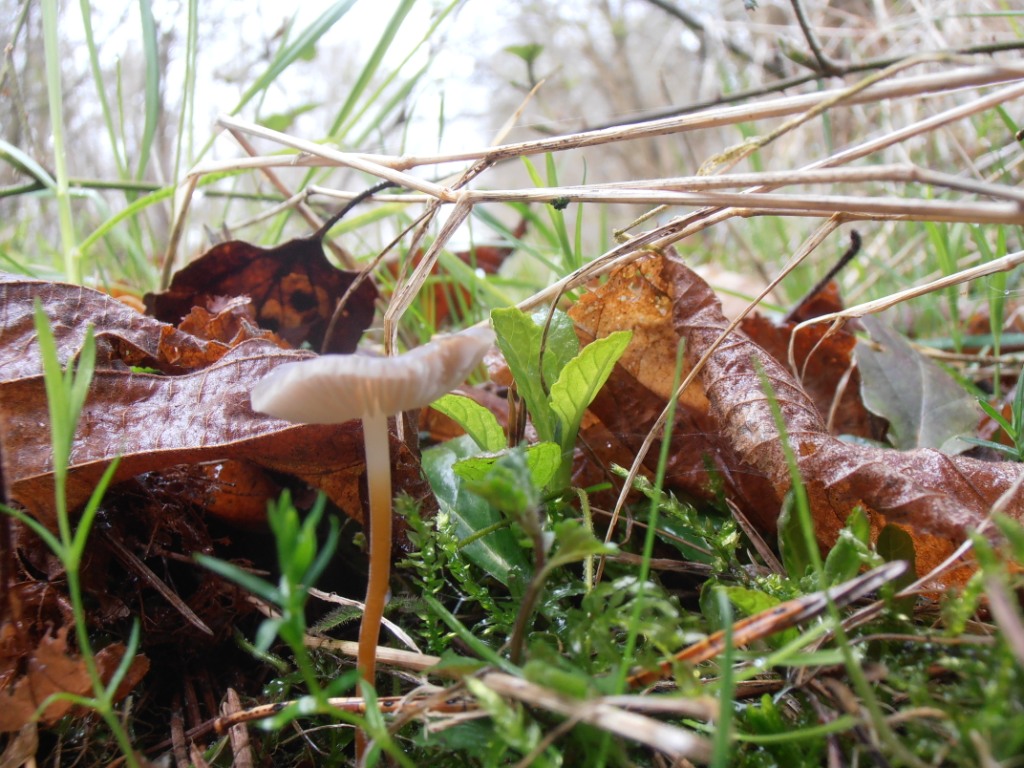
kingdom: Fungi
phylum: Basidiomycota
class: Agaricomycetes
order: Agaricales
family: Physalacriaceae
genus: Strobilurus
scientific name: Strobilurus tenacellus
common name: sommer-koglehat
